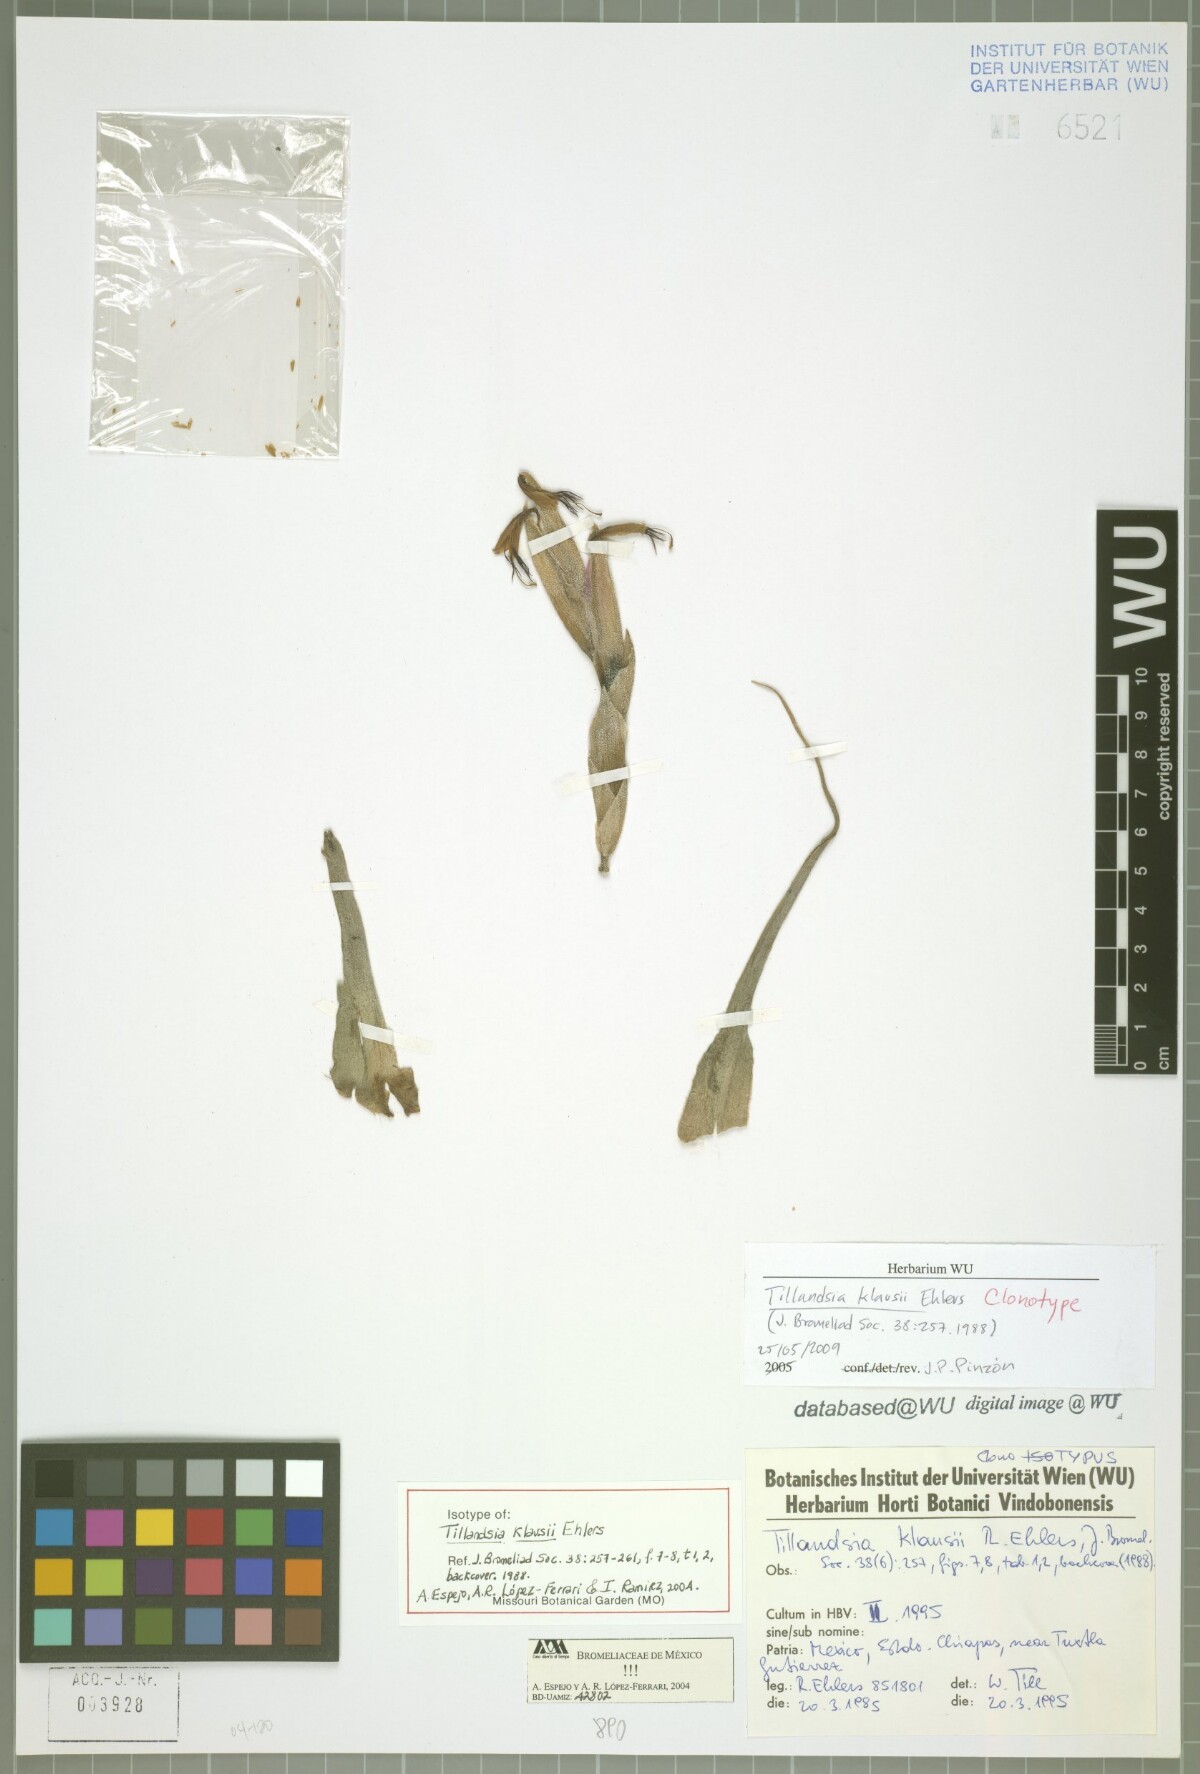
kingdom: Plantae
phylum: Tracheophyta
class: Liliopsida
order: Poales
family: Bromeliaceae
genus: Tillandsia
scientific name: Tillandsia klausii
